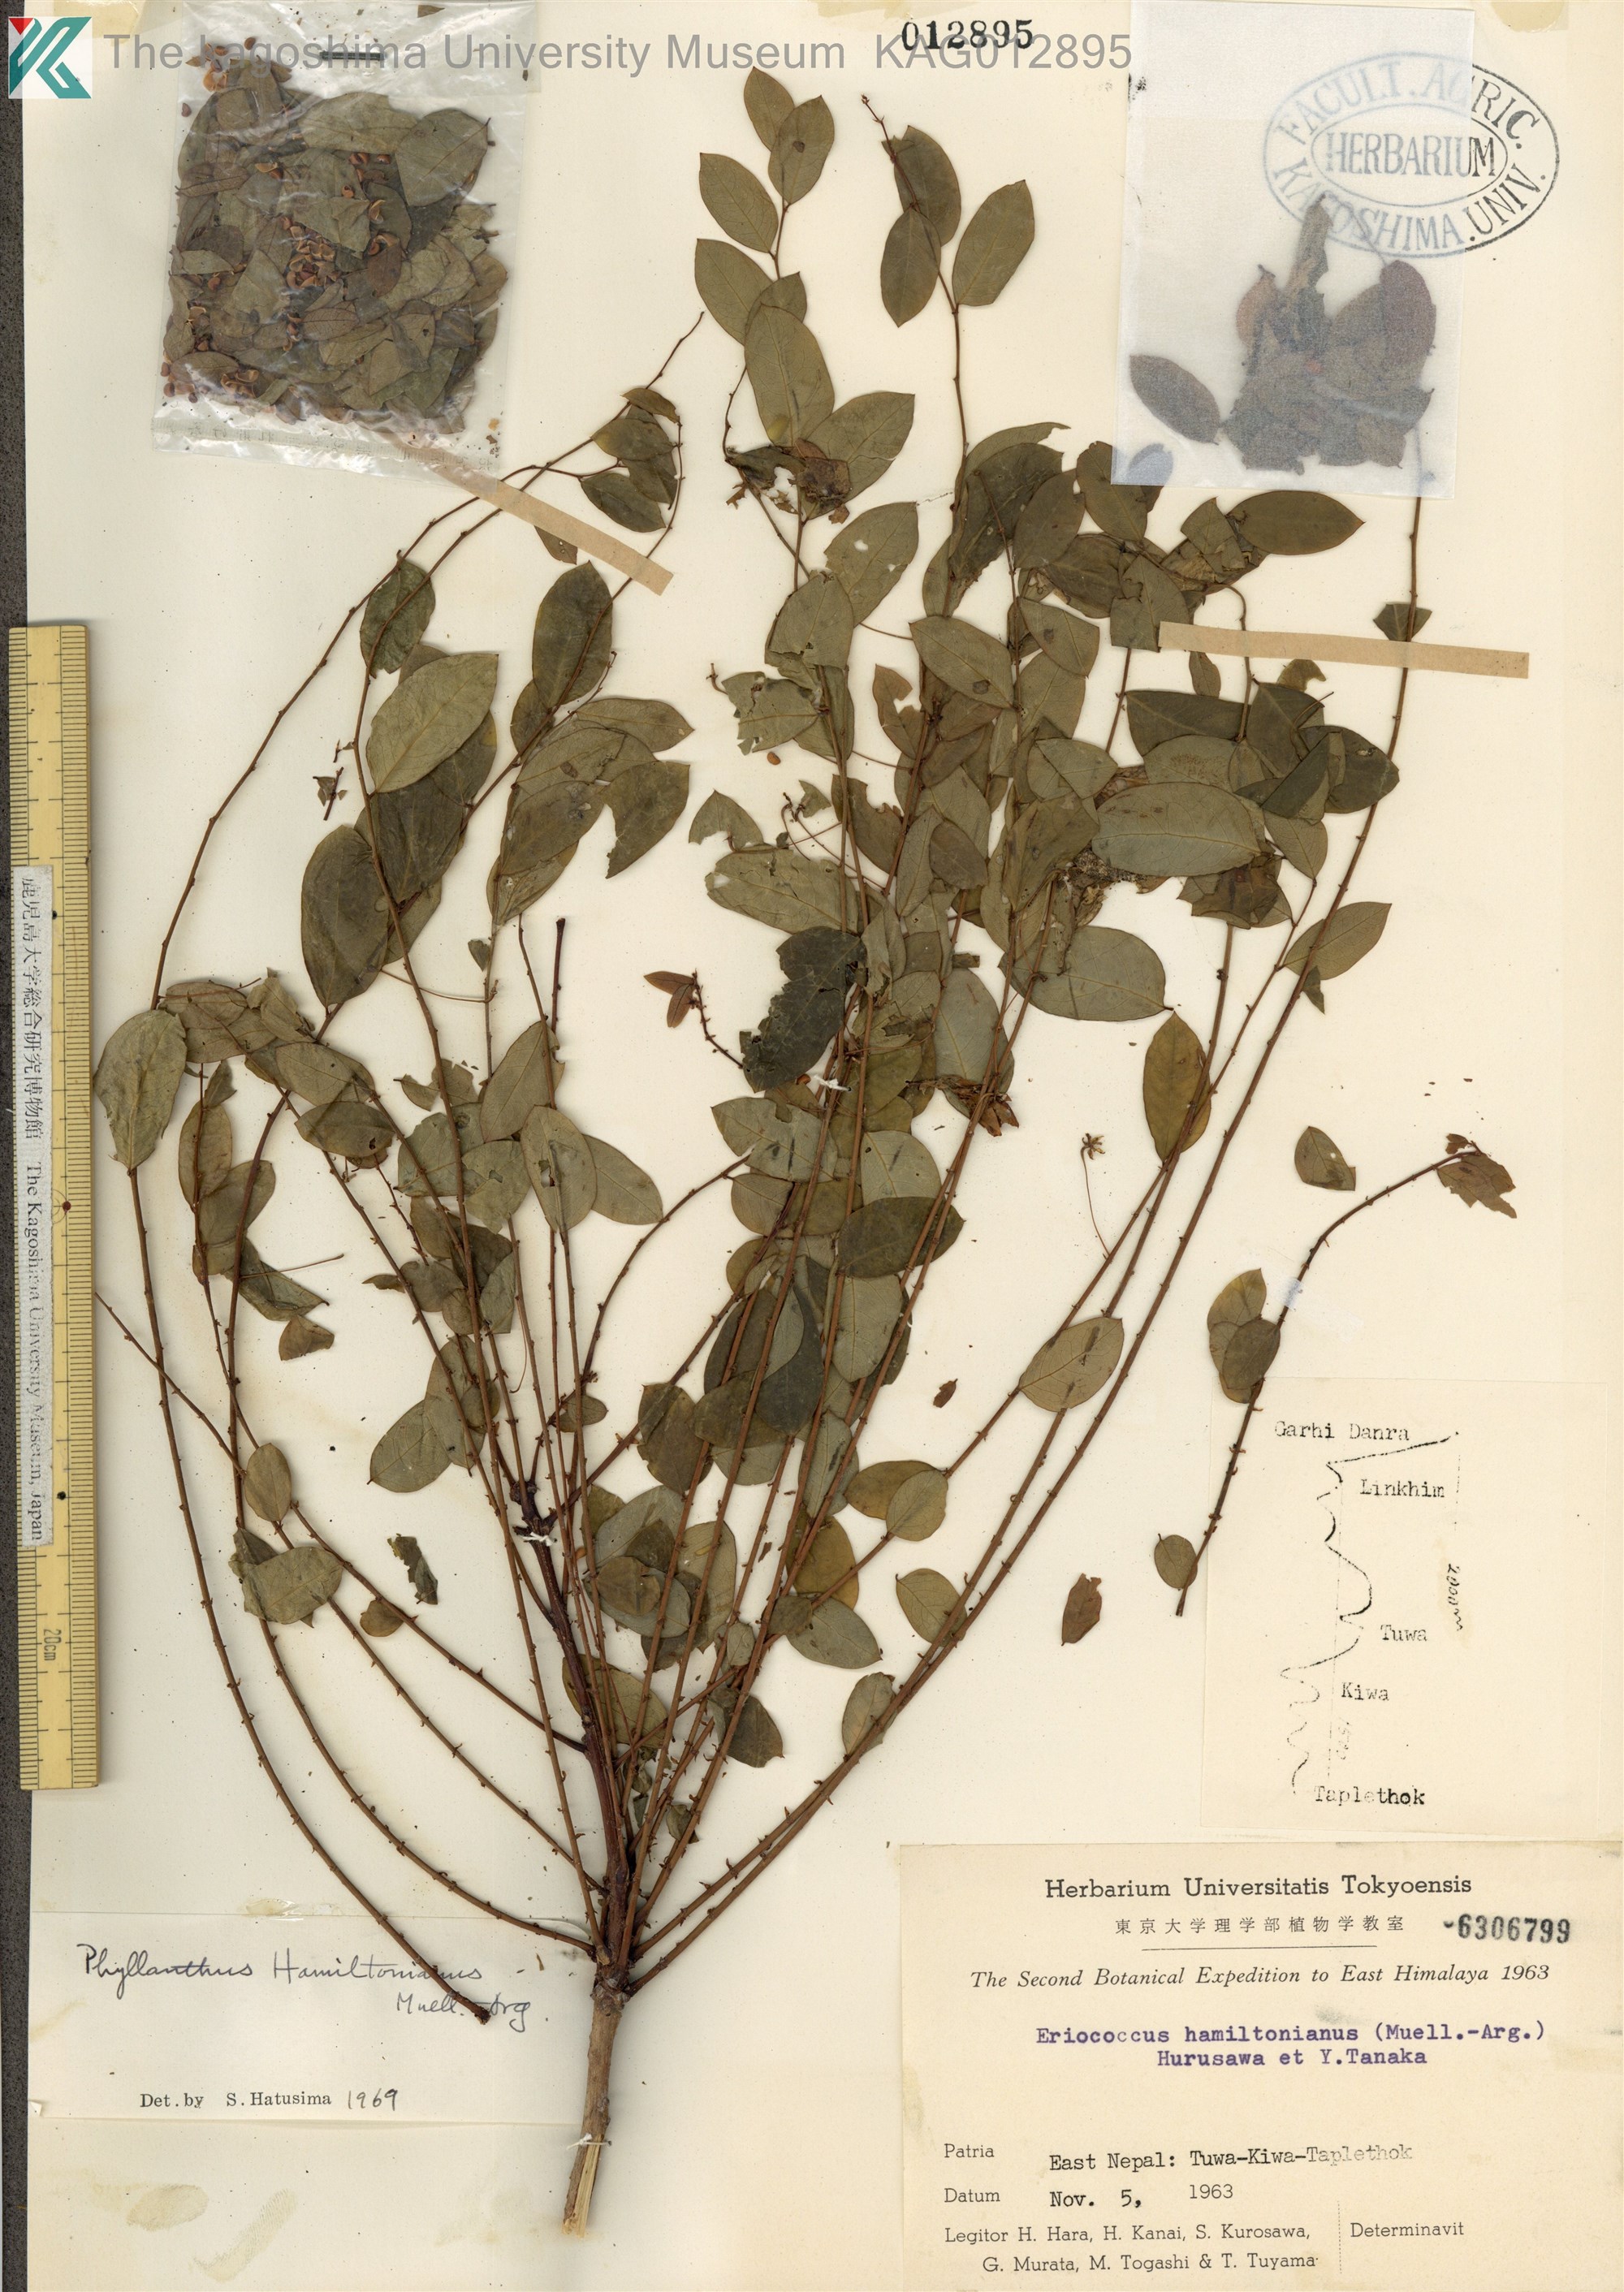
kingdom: Plantae
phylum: Tracheophyta
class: Magnoliopsida
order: Malpighiales
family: Phyllanthaceae
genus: Phyllanthus
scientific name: Phyllanthus sikkimensis
